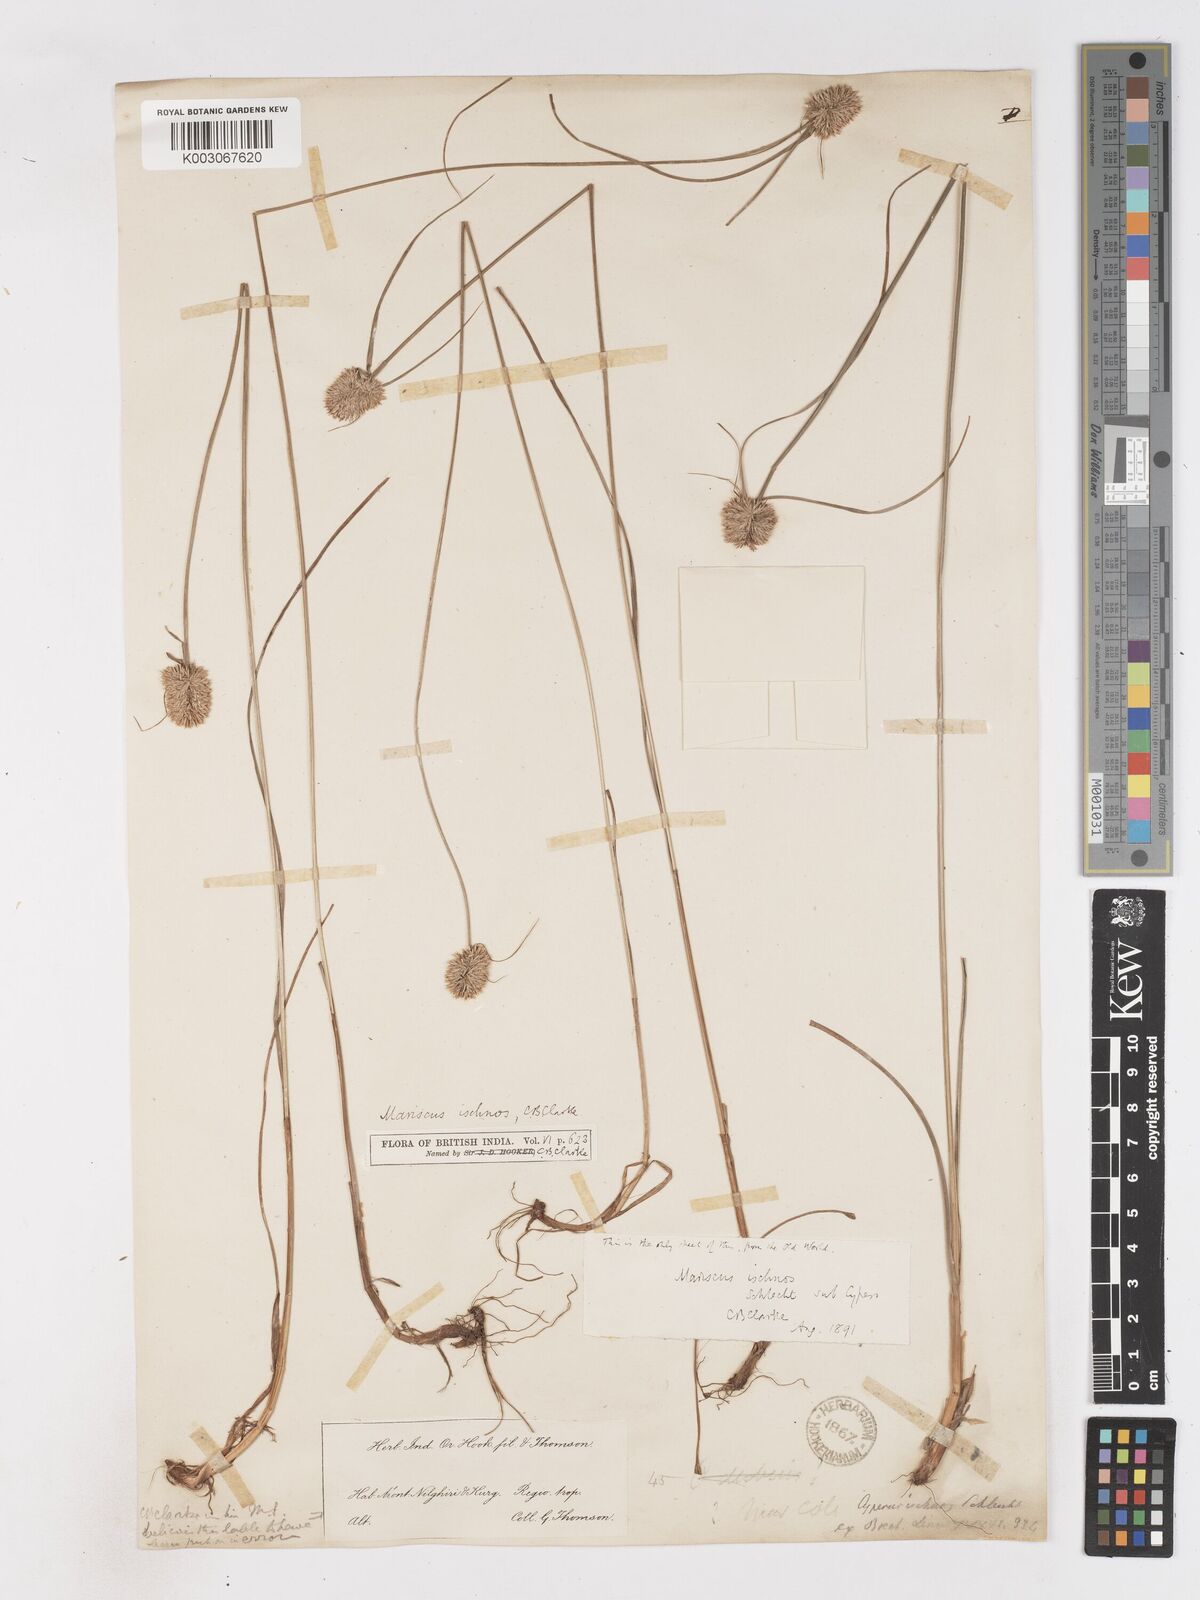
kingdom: Plantae
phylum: Tracheophyta
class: Liliopsida
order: Poales
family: Cyperaceae
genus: Cyperus
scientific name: Cyperus ischnos
